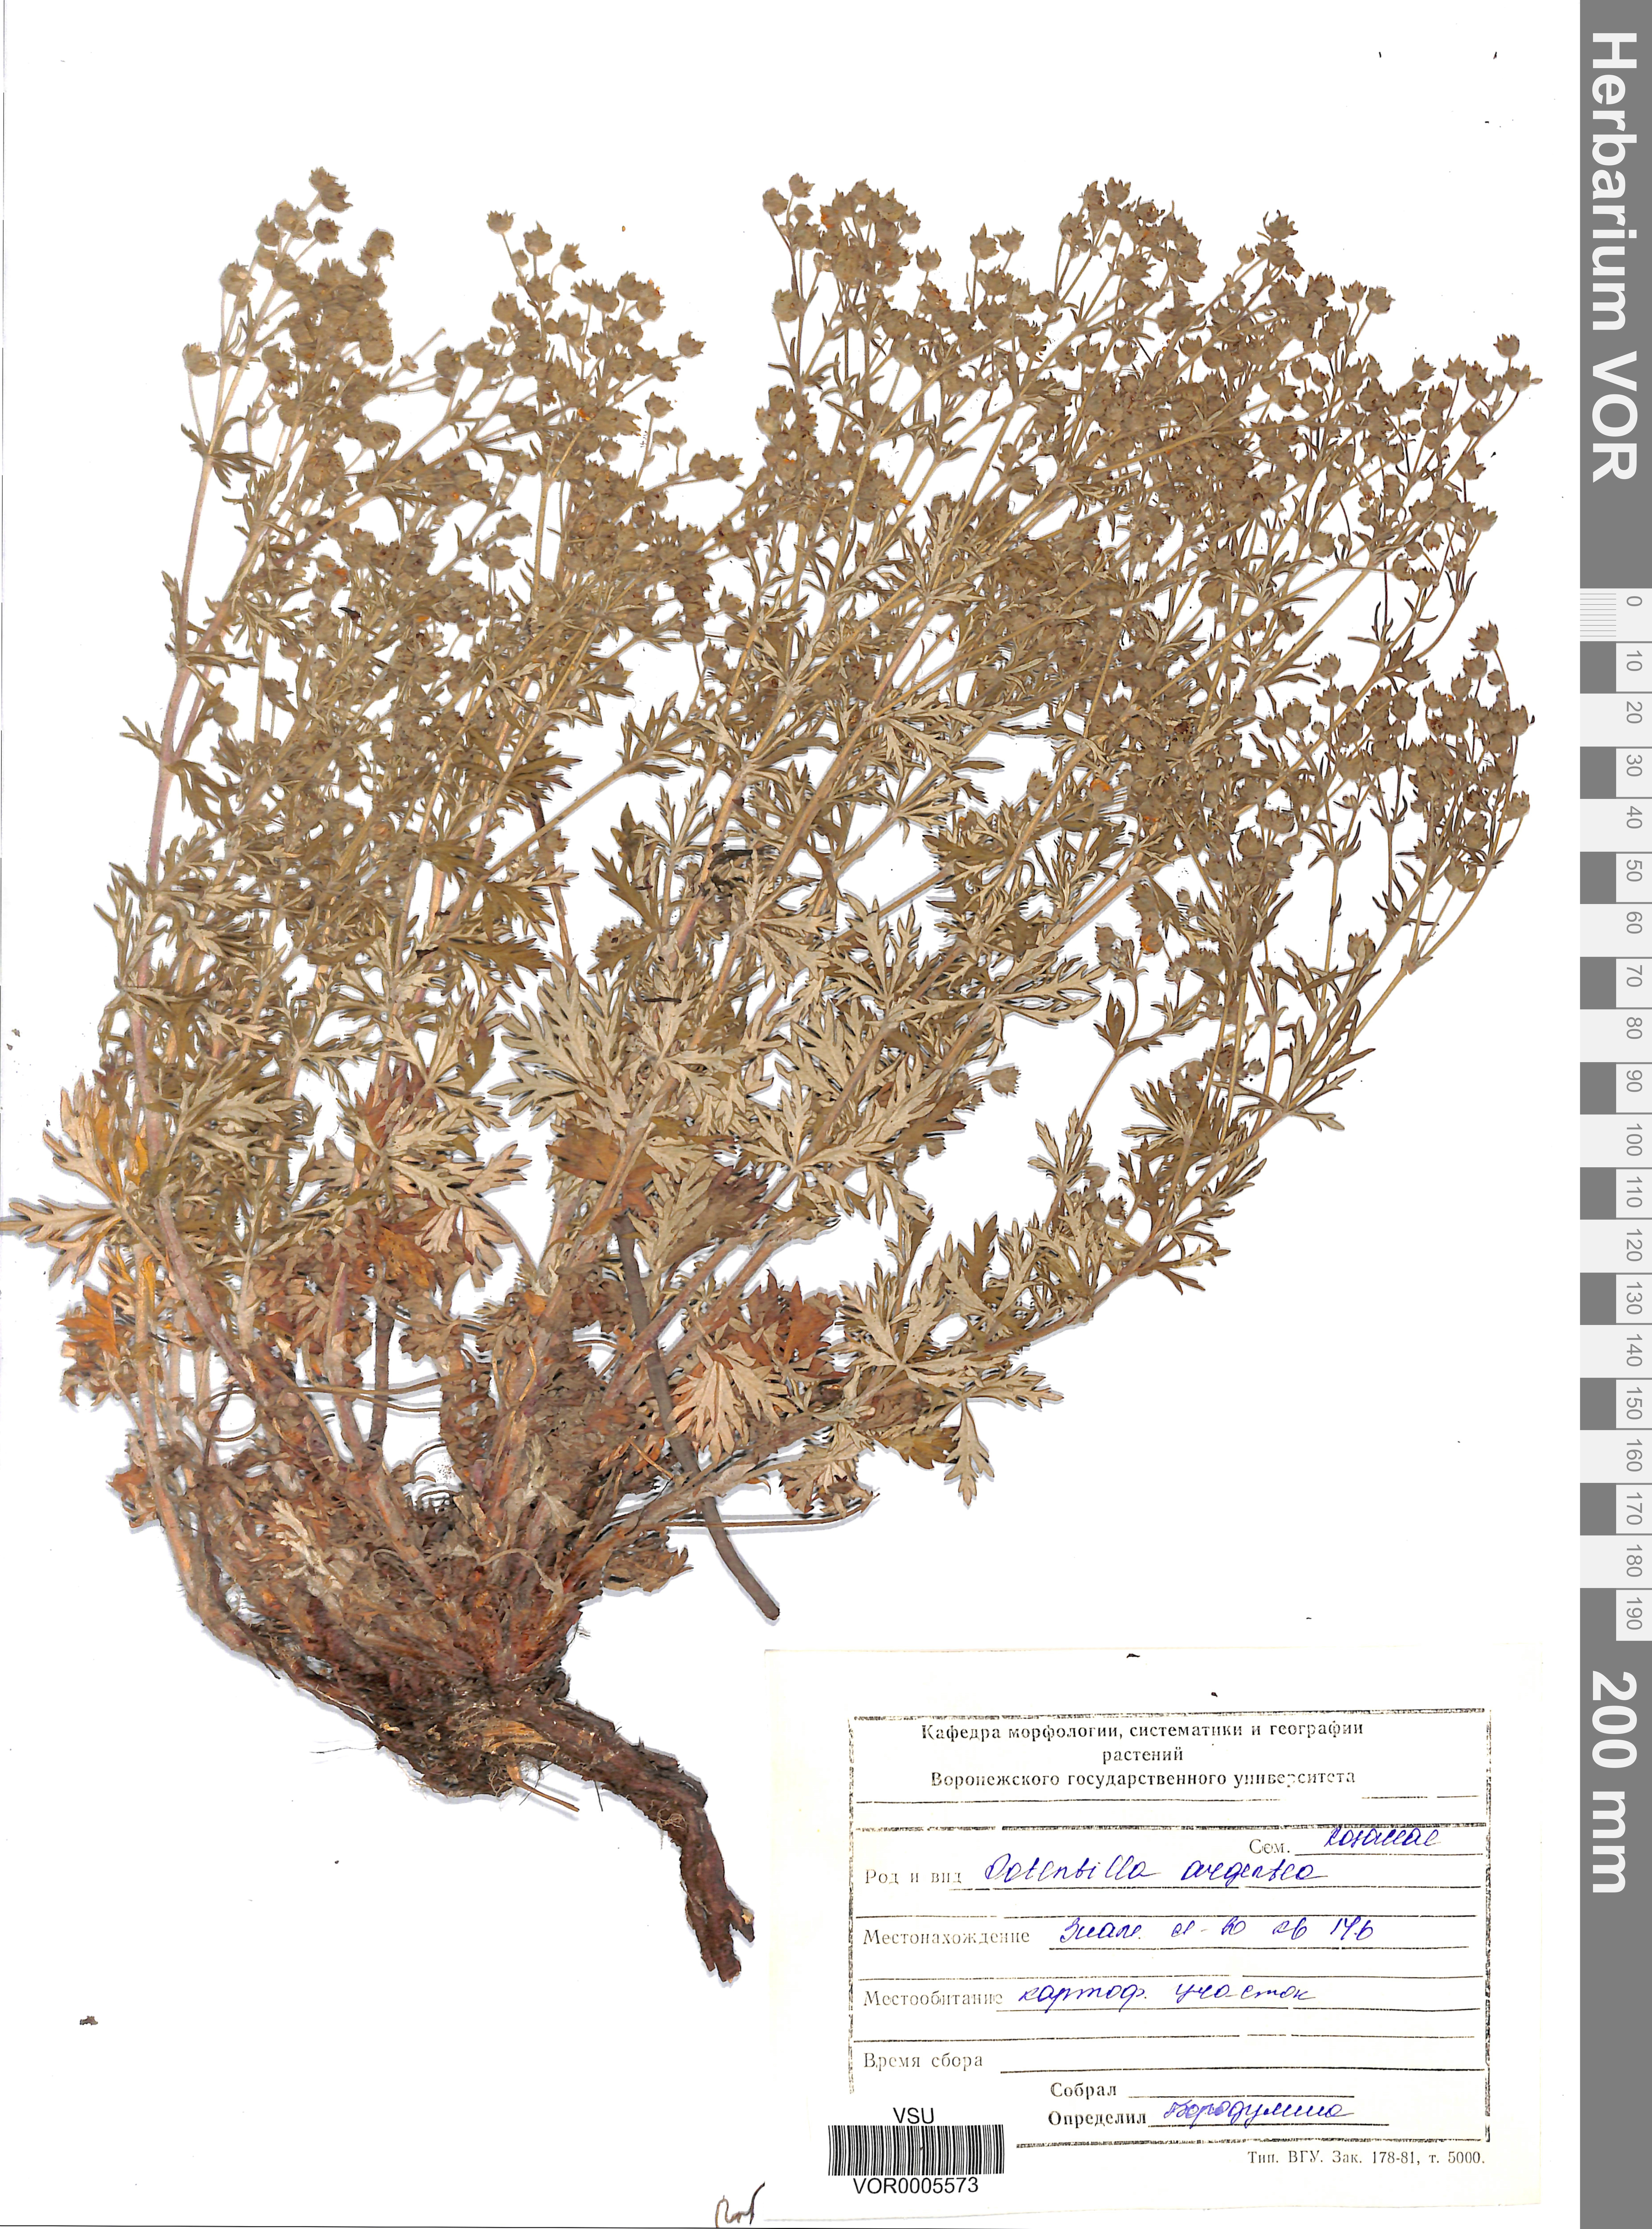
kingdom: Plantae
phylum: Tracheophyta
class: Magnoliopsida
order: Rosales
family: Rosaceae
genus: Potentilla
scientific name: Potentilla argentea
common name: Hoary cinquefoil
